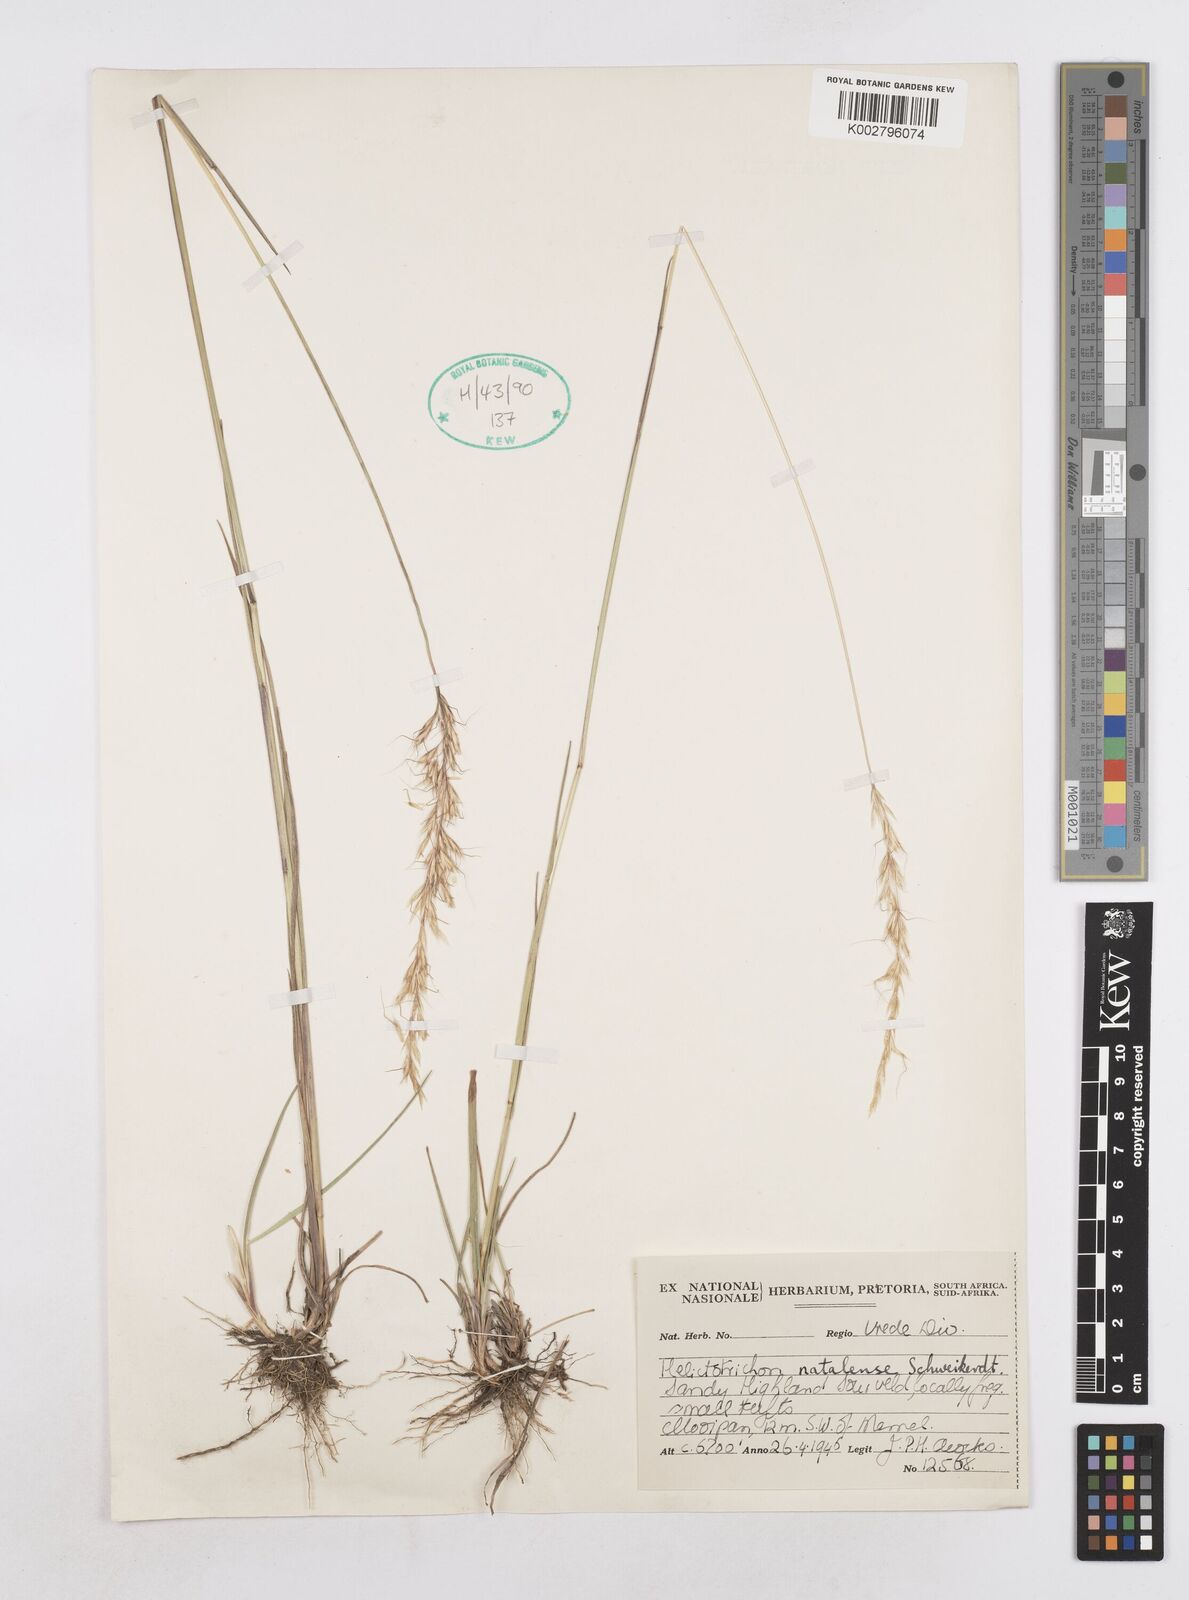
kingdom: Plantae
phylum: Tracheophyta
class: Liliopsida
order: Poales
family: Poaceae
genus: Trisetopsis
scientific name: Trisetopsis natalensis
